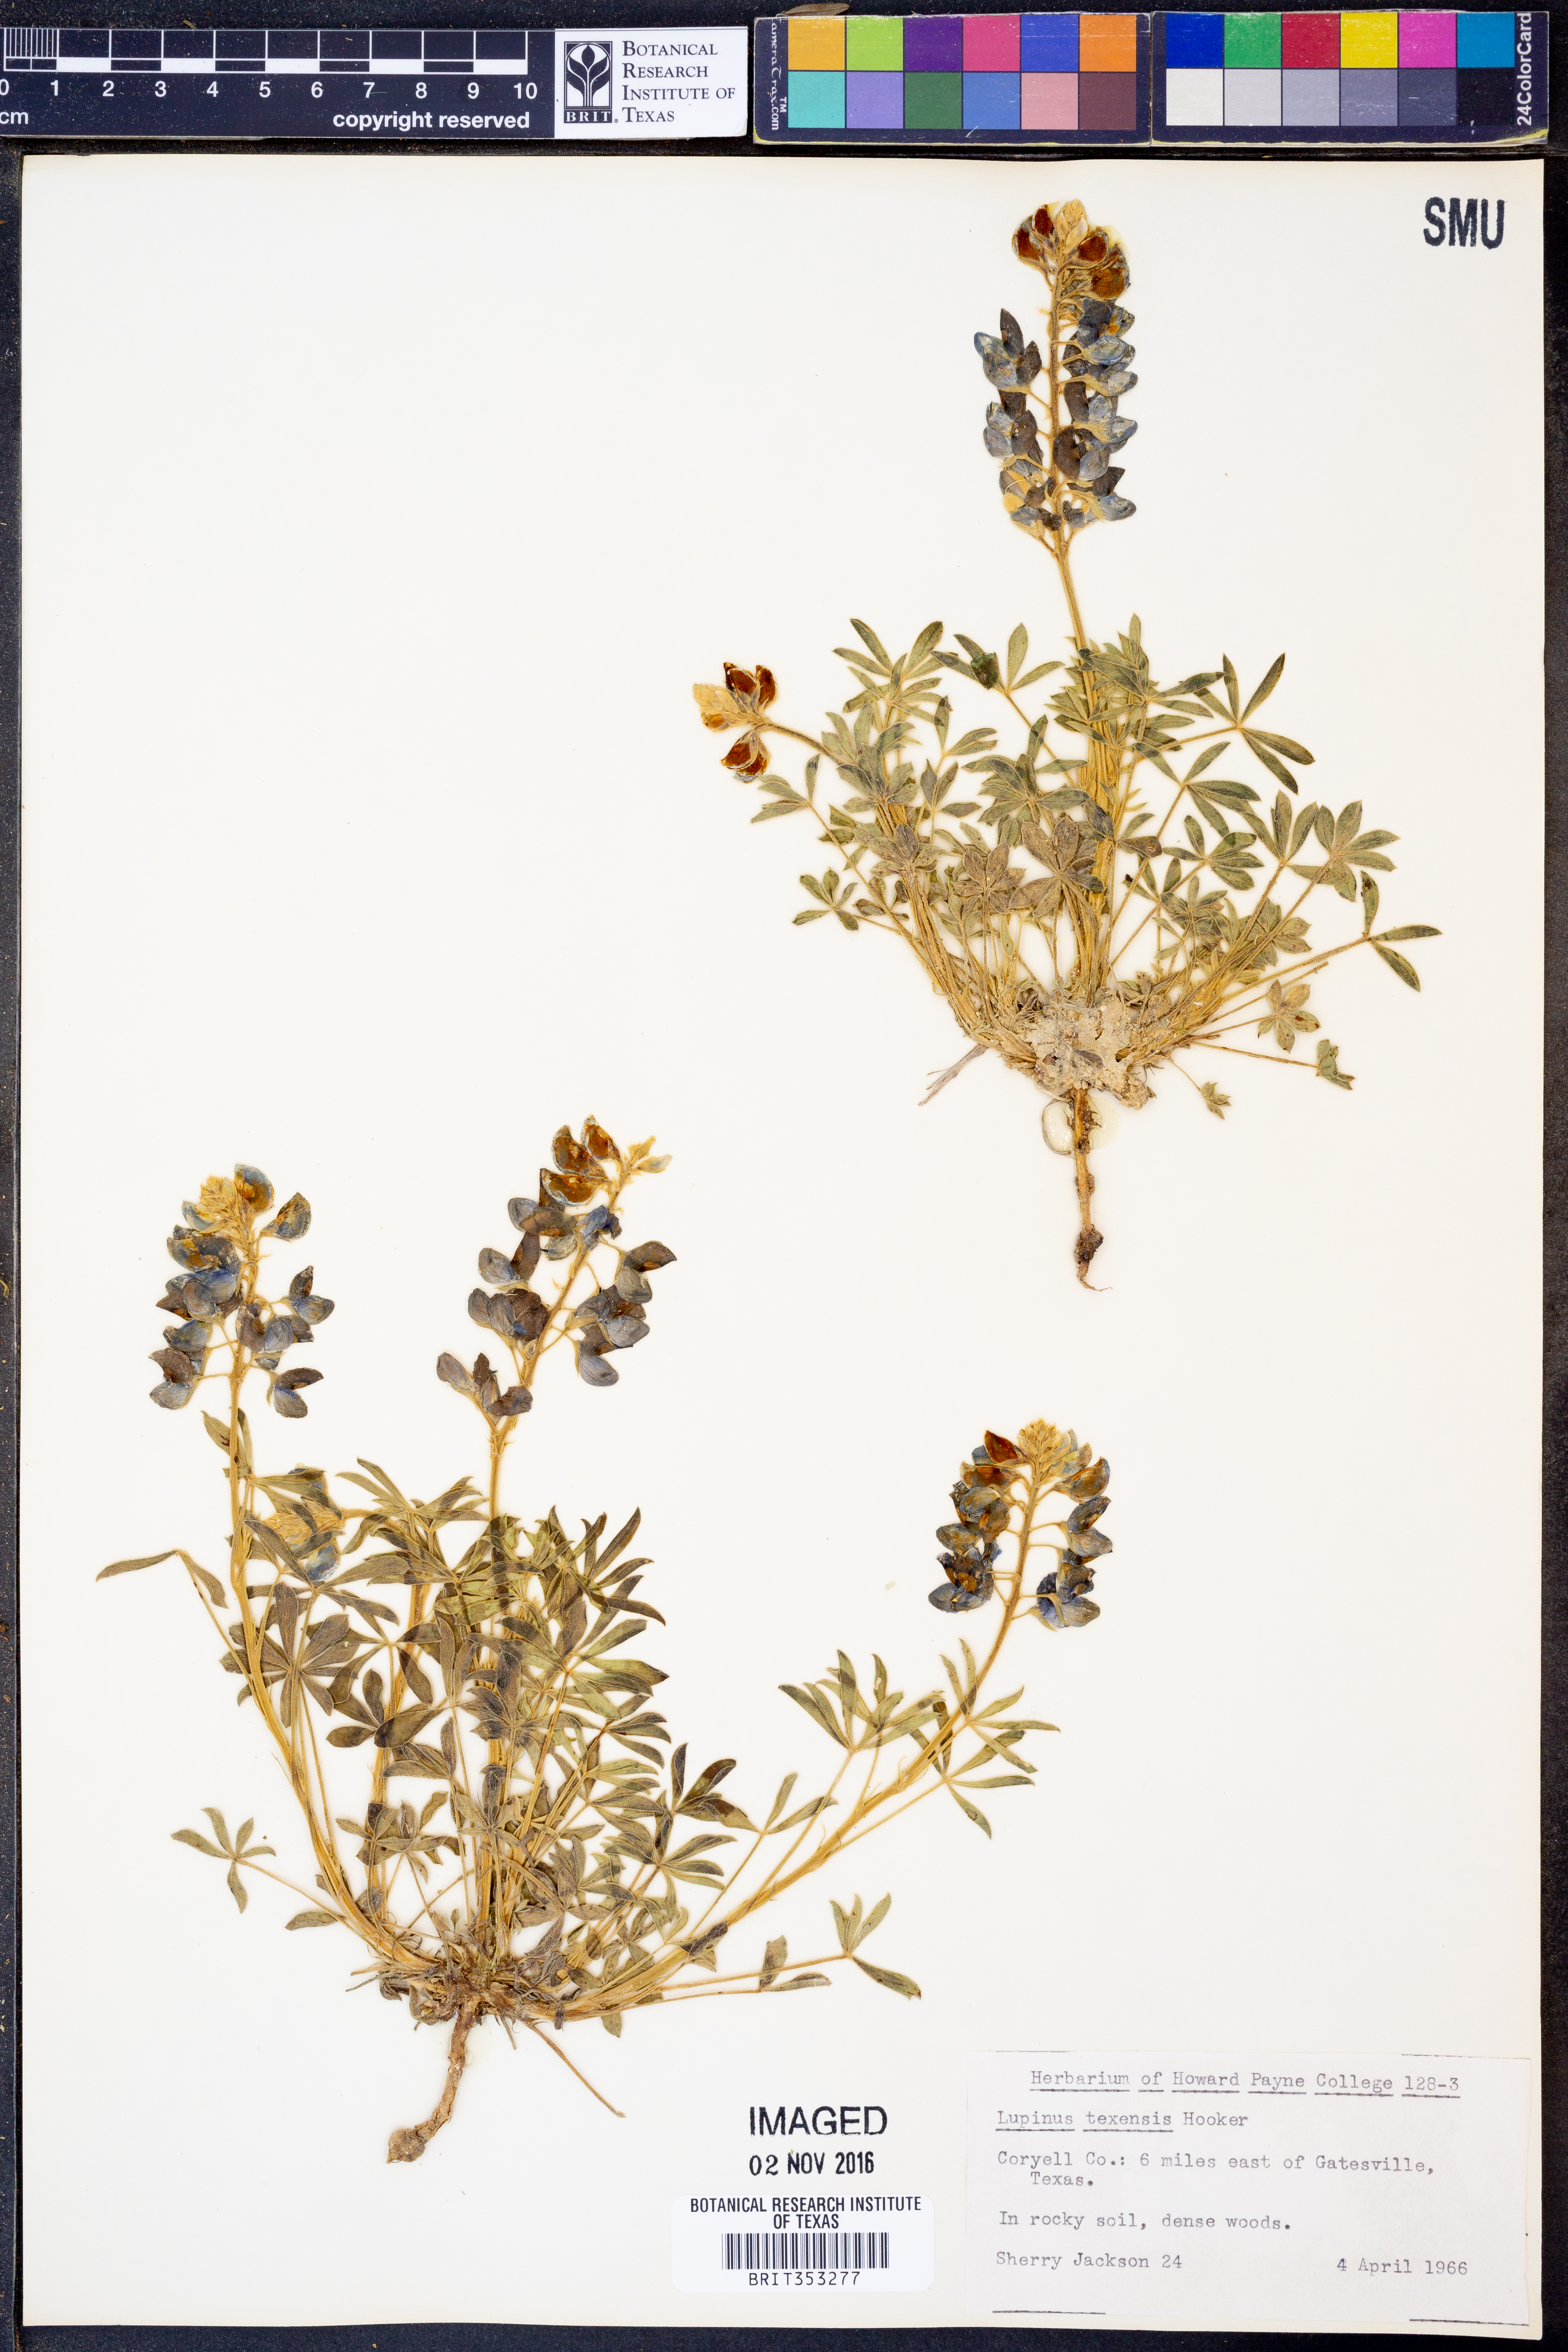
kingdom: Plantae
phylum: Tracheophyta
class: Magnoliopsida
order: Fabales
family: Fabaceae
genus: Lupinus
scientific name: Lupinus texensis
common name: Texas bluebonnet
